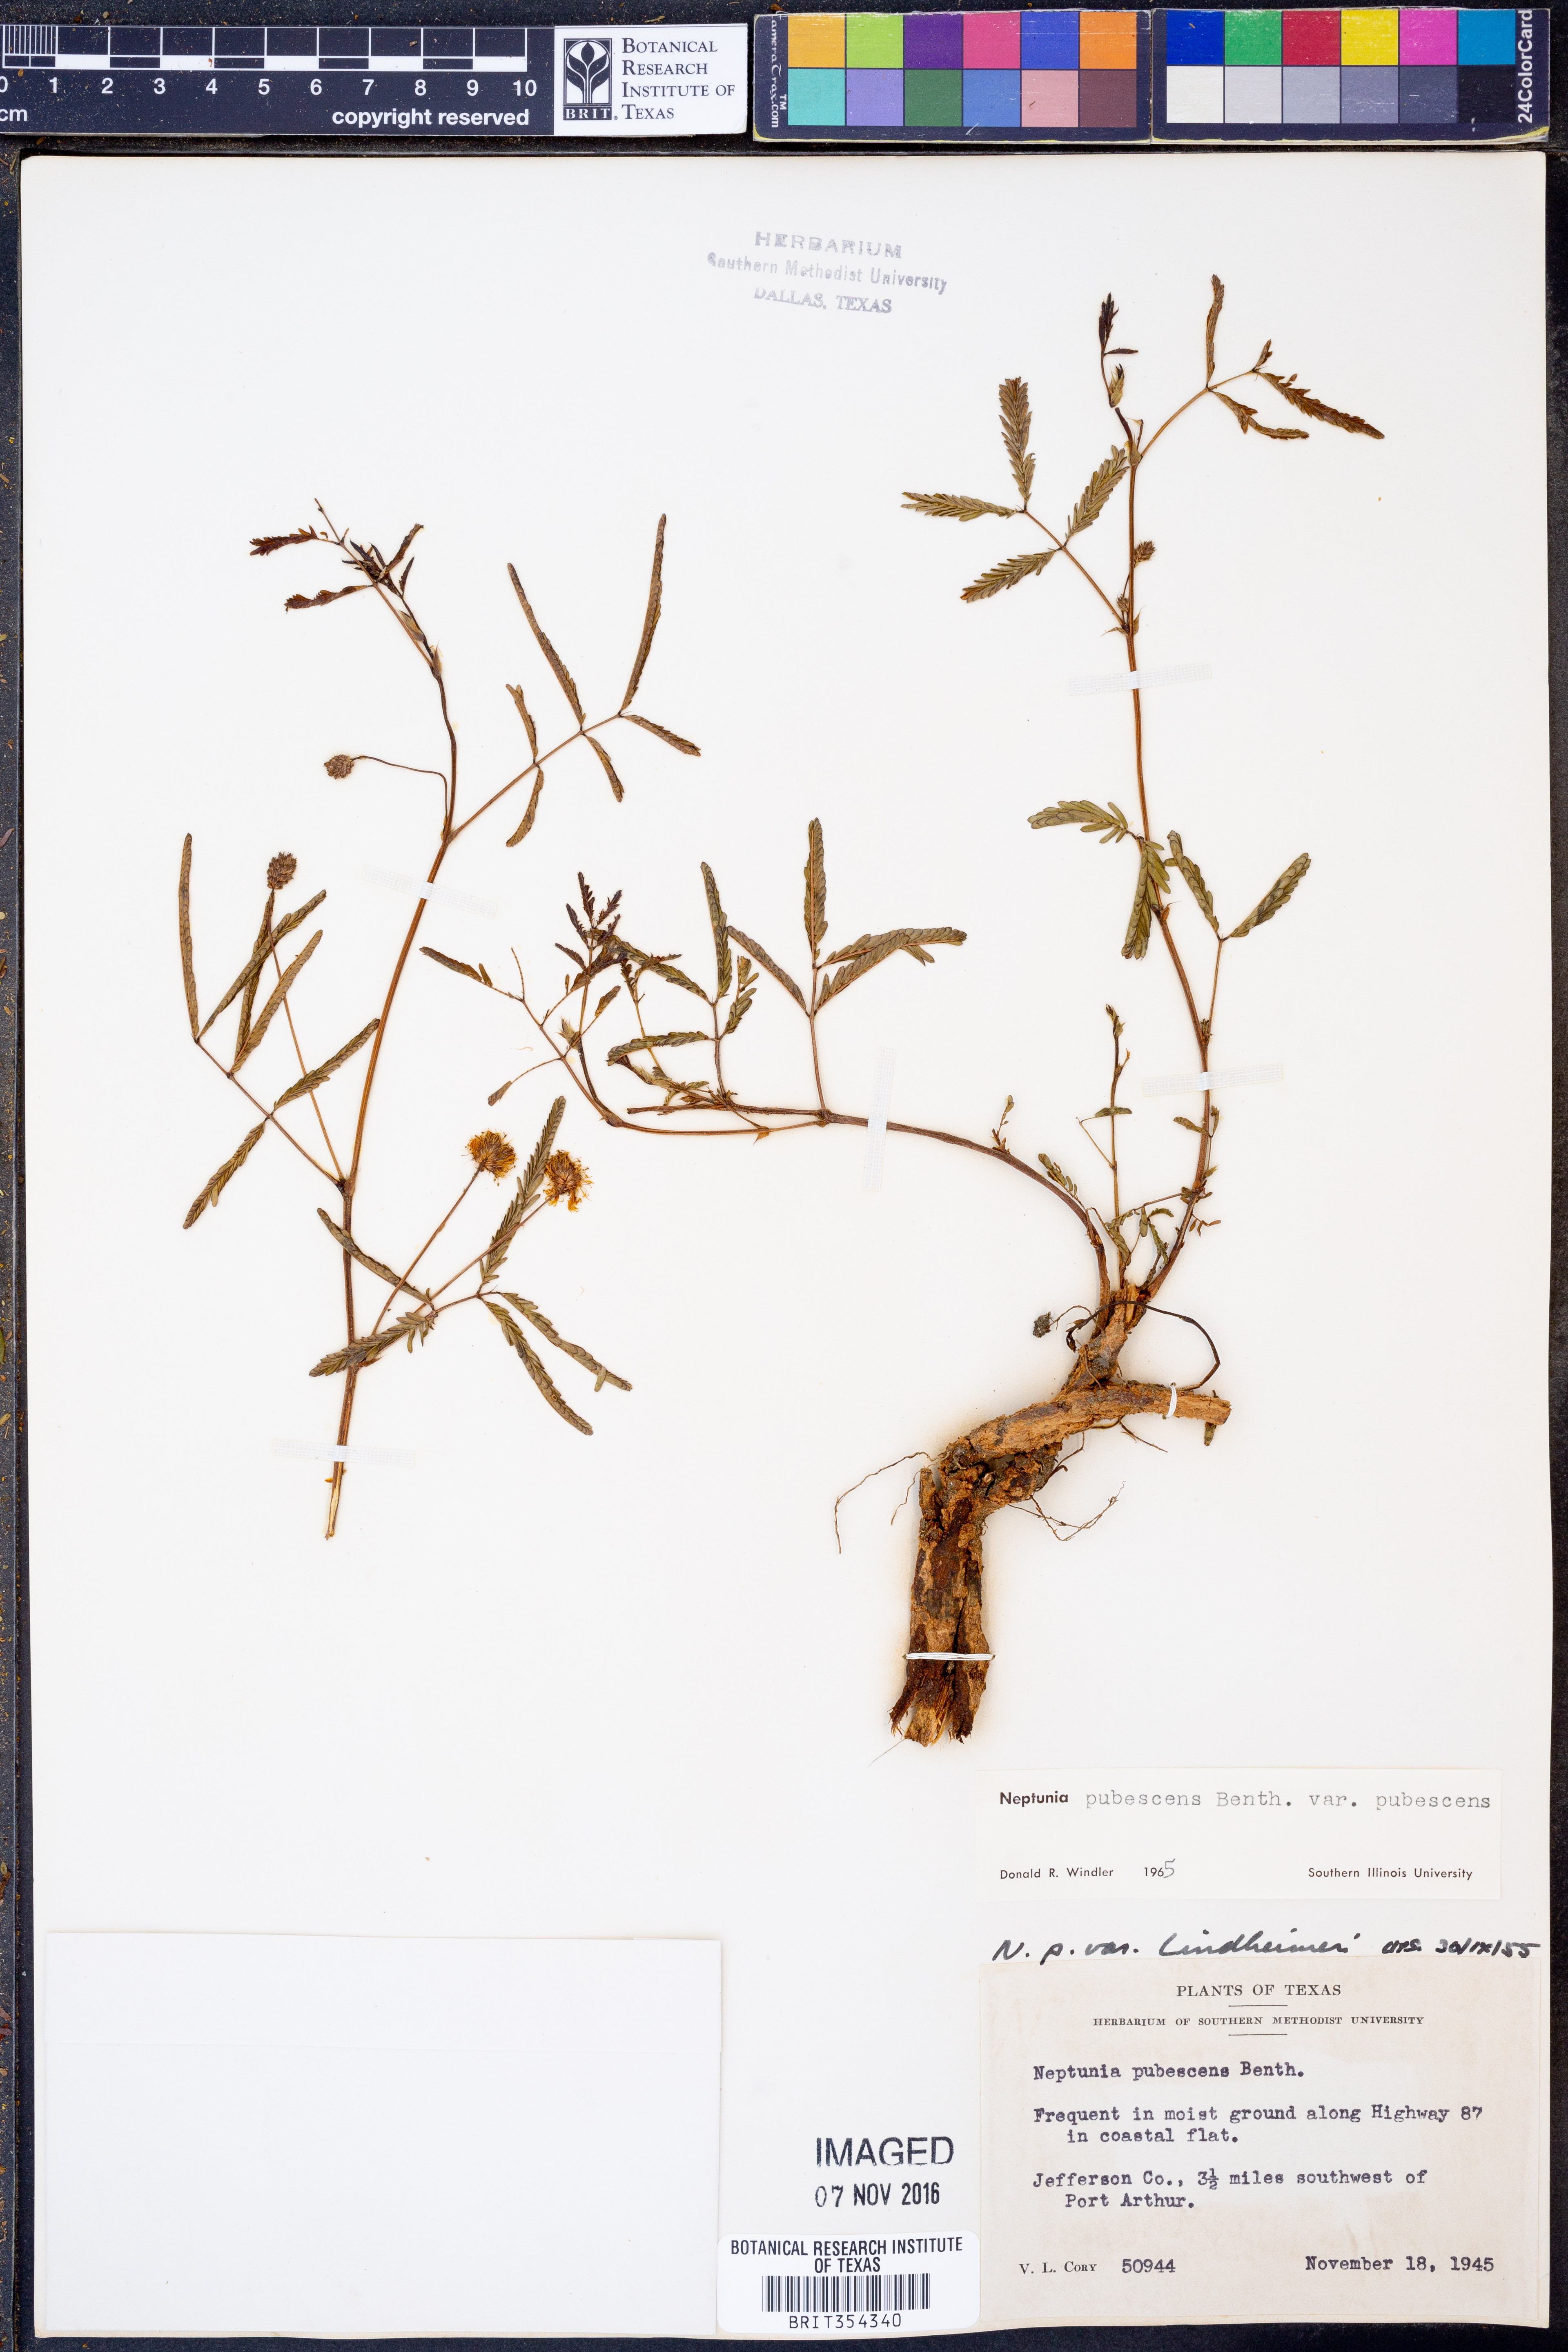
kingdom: Plantae
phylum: Tracheophyta
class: Magnoliopsida
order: Fabales
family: Fabaceae
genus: Neptunia
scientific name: Neptunia pubescens
